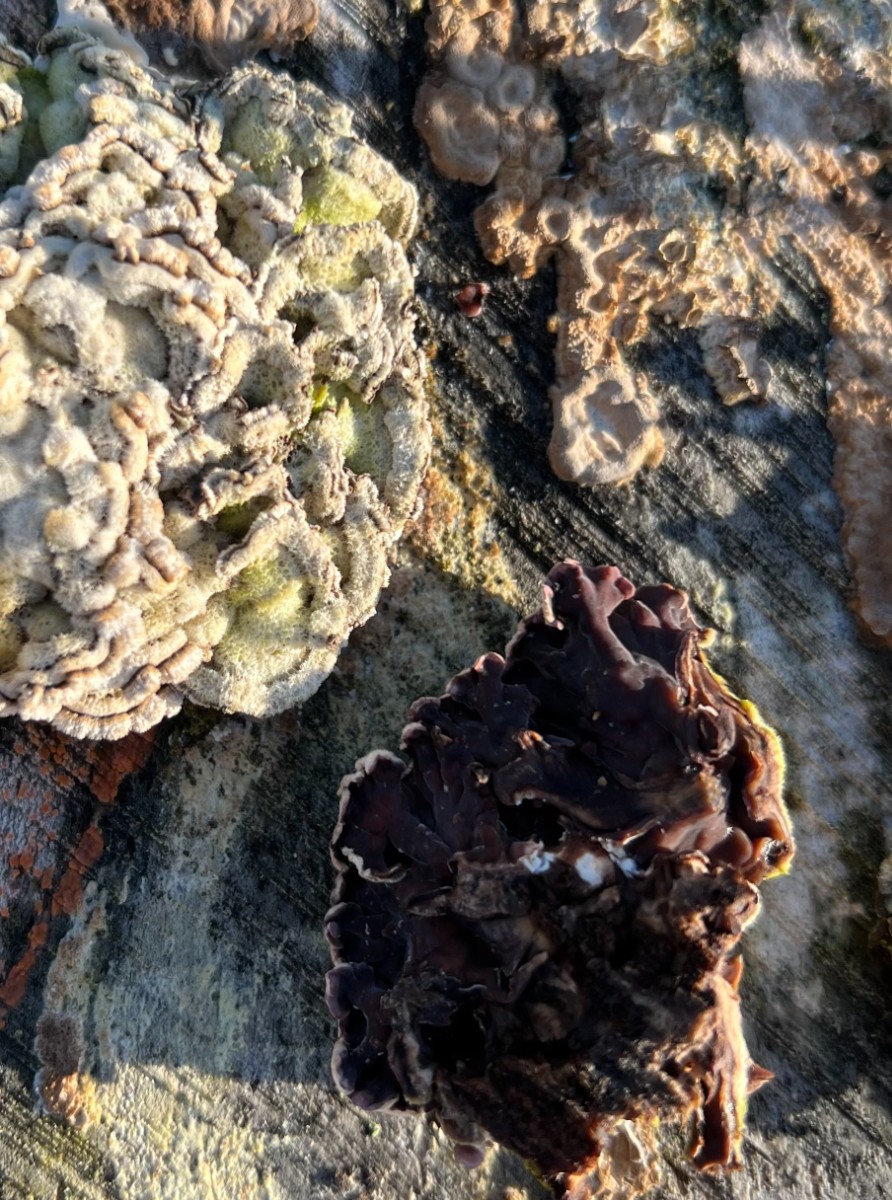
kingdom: Fungi
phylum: Basidiomycota
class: Agaricomycetes
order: Agaricales
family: Cyphellaceae
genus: Chondrostereum
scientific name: Chondrostereum purpureum
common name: purpurlædersvamp
